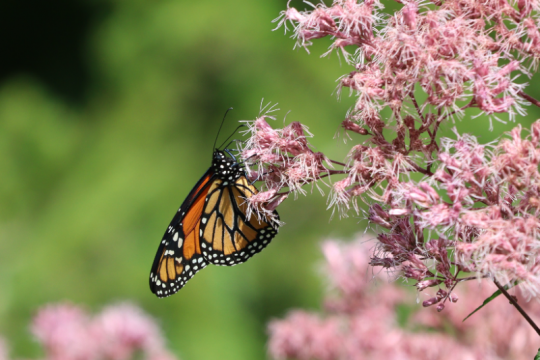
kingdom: Animalia
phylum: Arthropoda
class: Insecta
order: Lepidoptera
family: Nymphalidae
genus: Danaus
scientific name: Danaus plexippus
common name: Monarch
